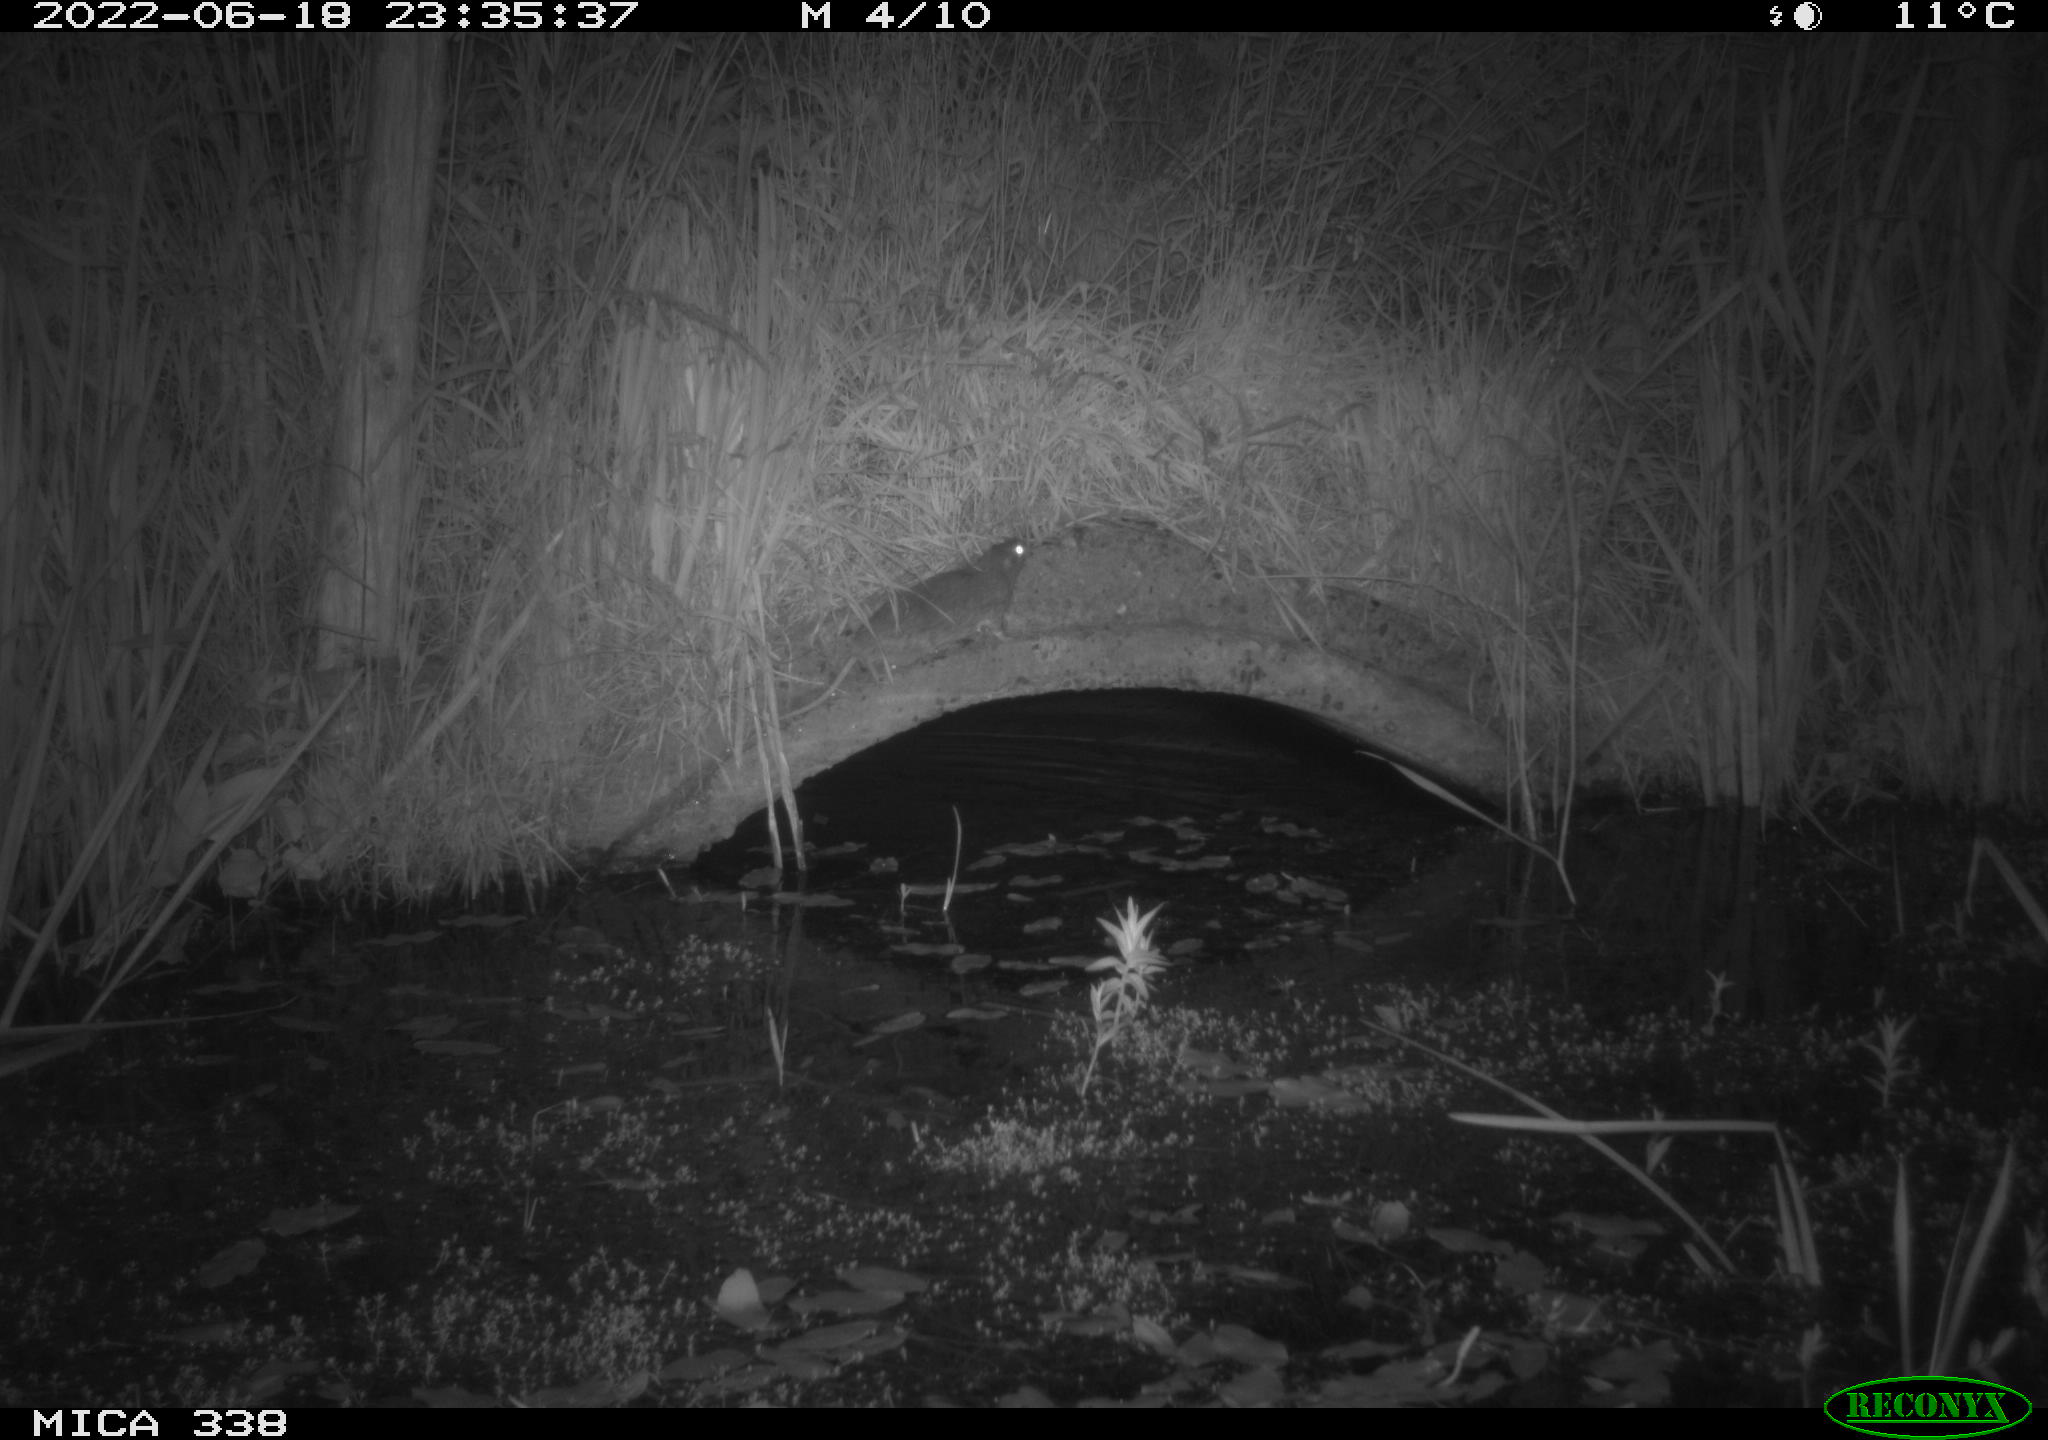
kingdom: Animalia
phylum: Chordata
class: Mammalia
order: Rodentia
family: Muridae
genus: Rattus
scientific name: Rattus norvegicus
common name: Brown rat
